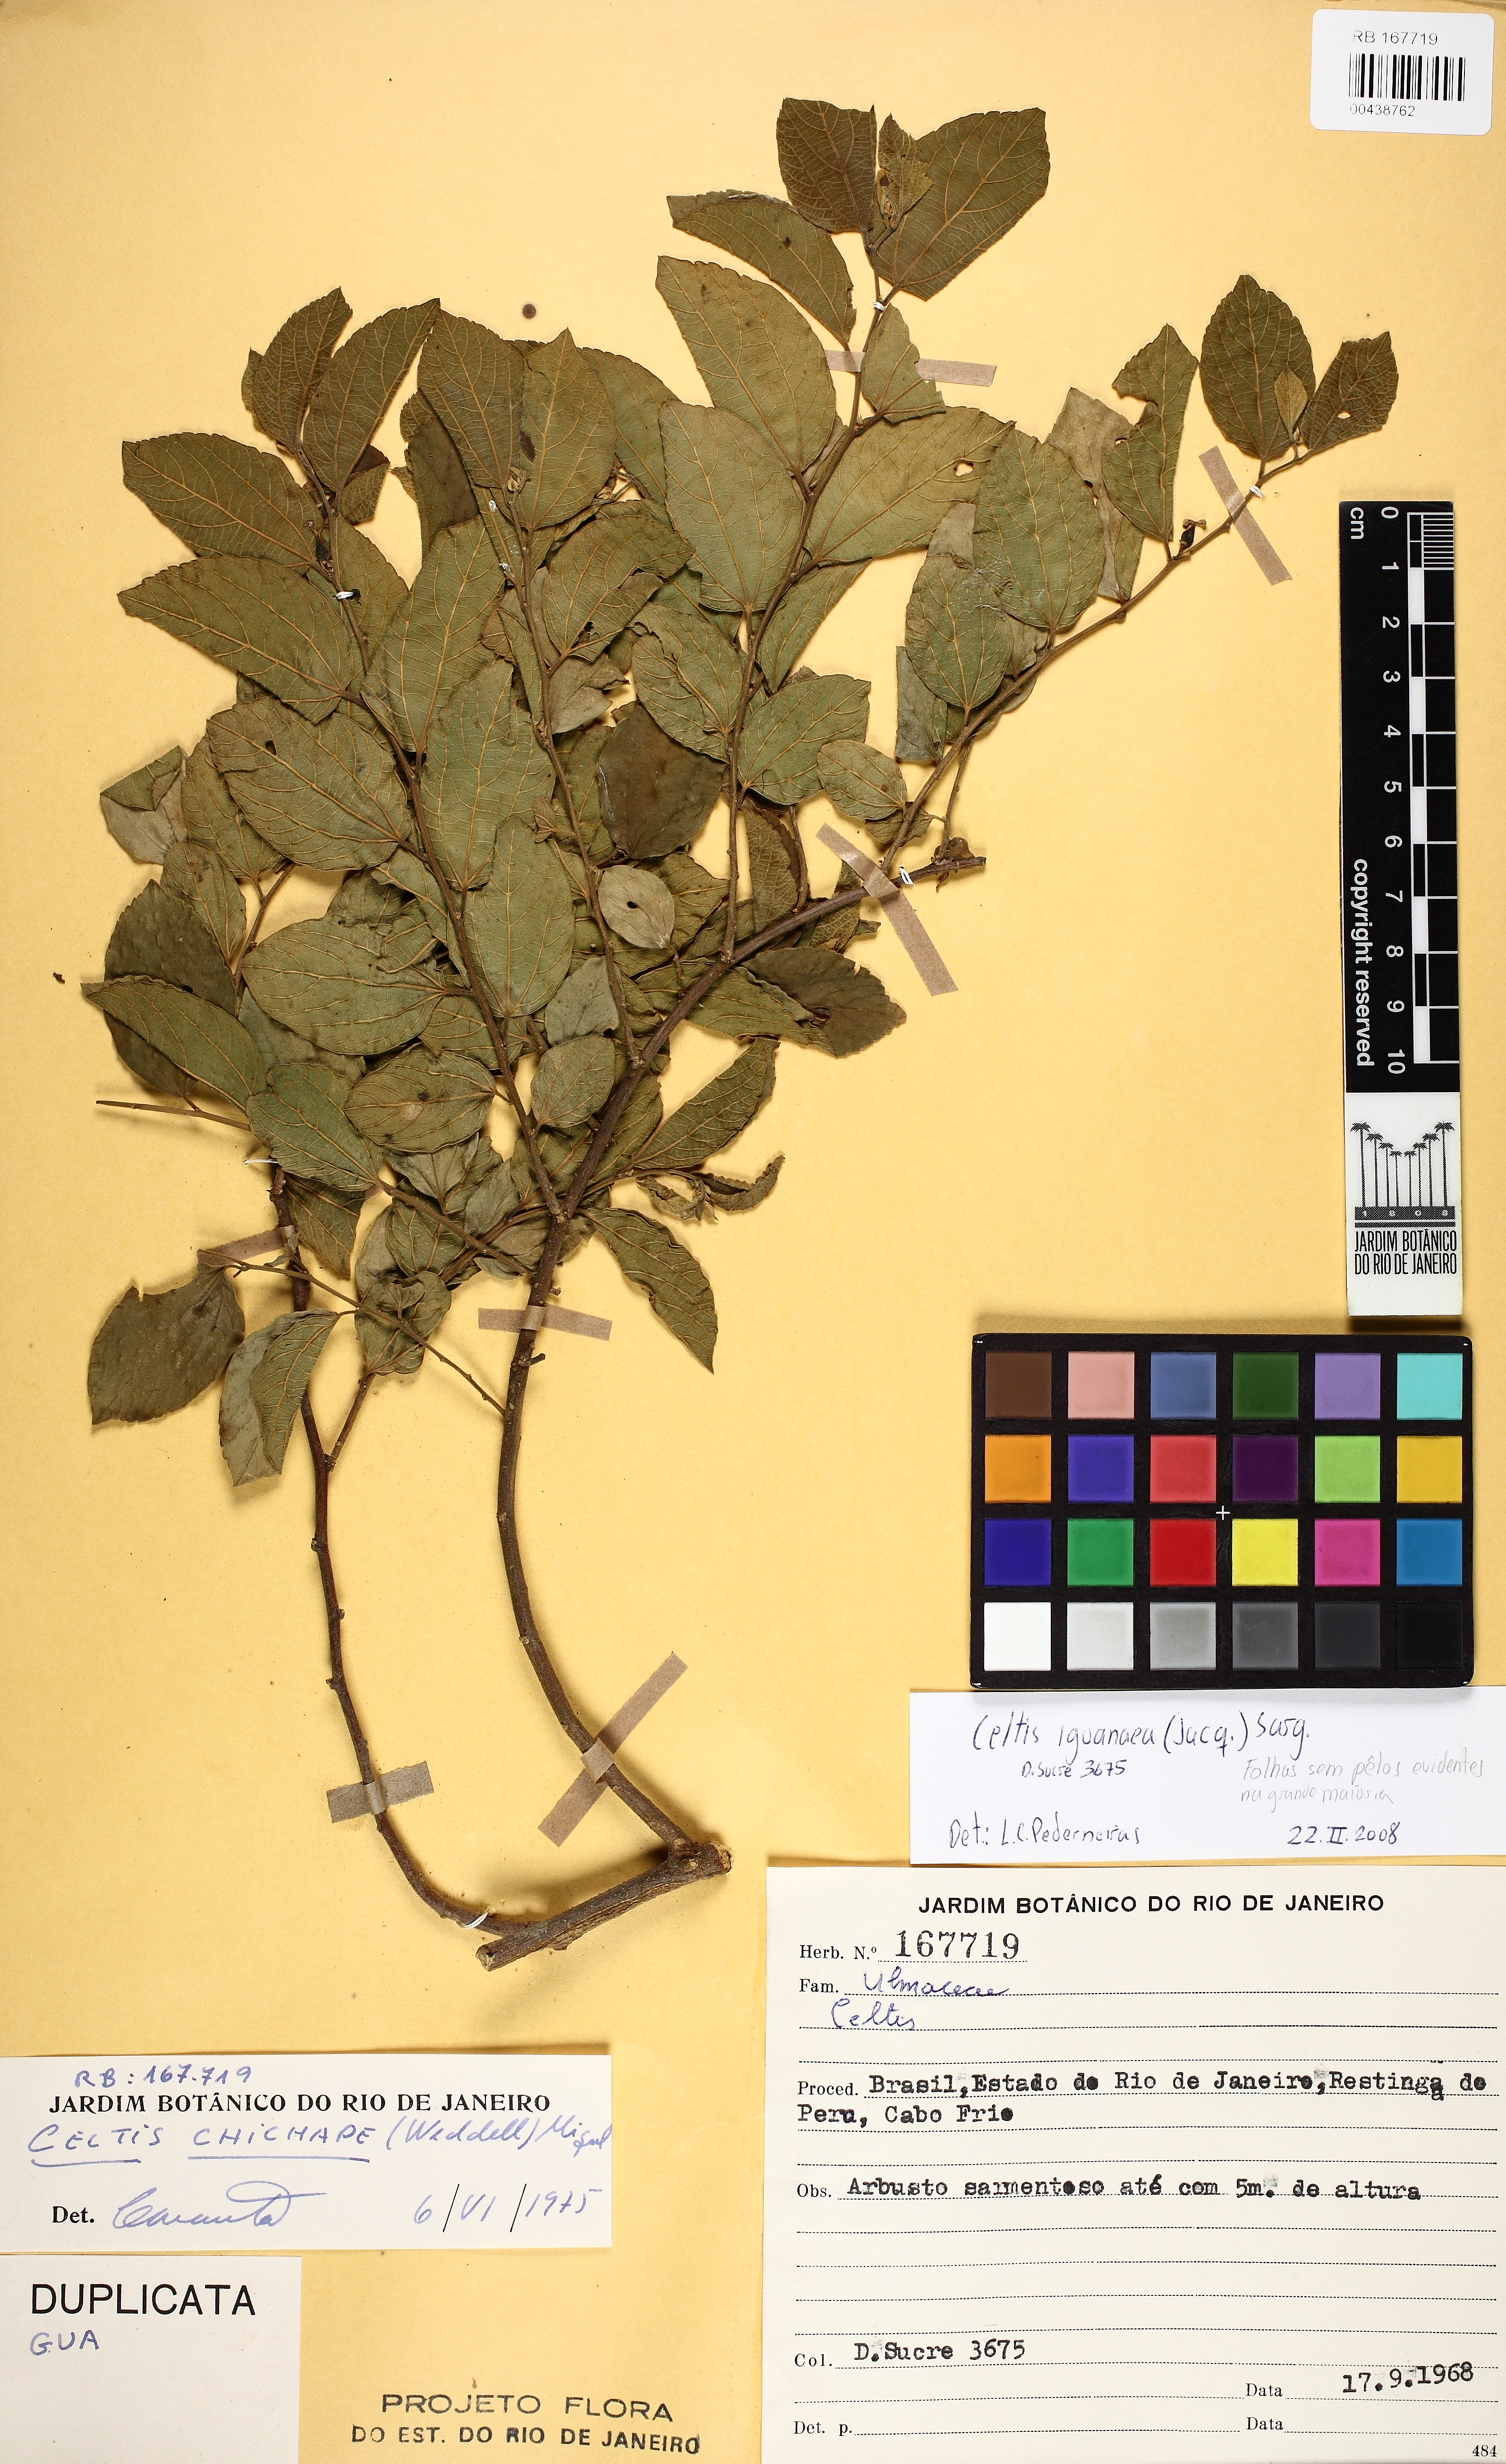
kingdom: Plantae
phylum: Tracheophyta
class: Magnoliopsida
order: Rosales
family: Cannabaceae
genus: Celtis
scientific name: Celtis iguanaea
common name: Iguana hackberry
